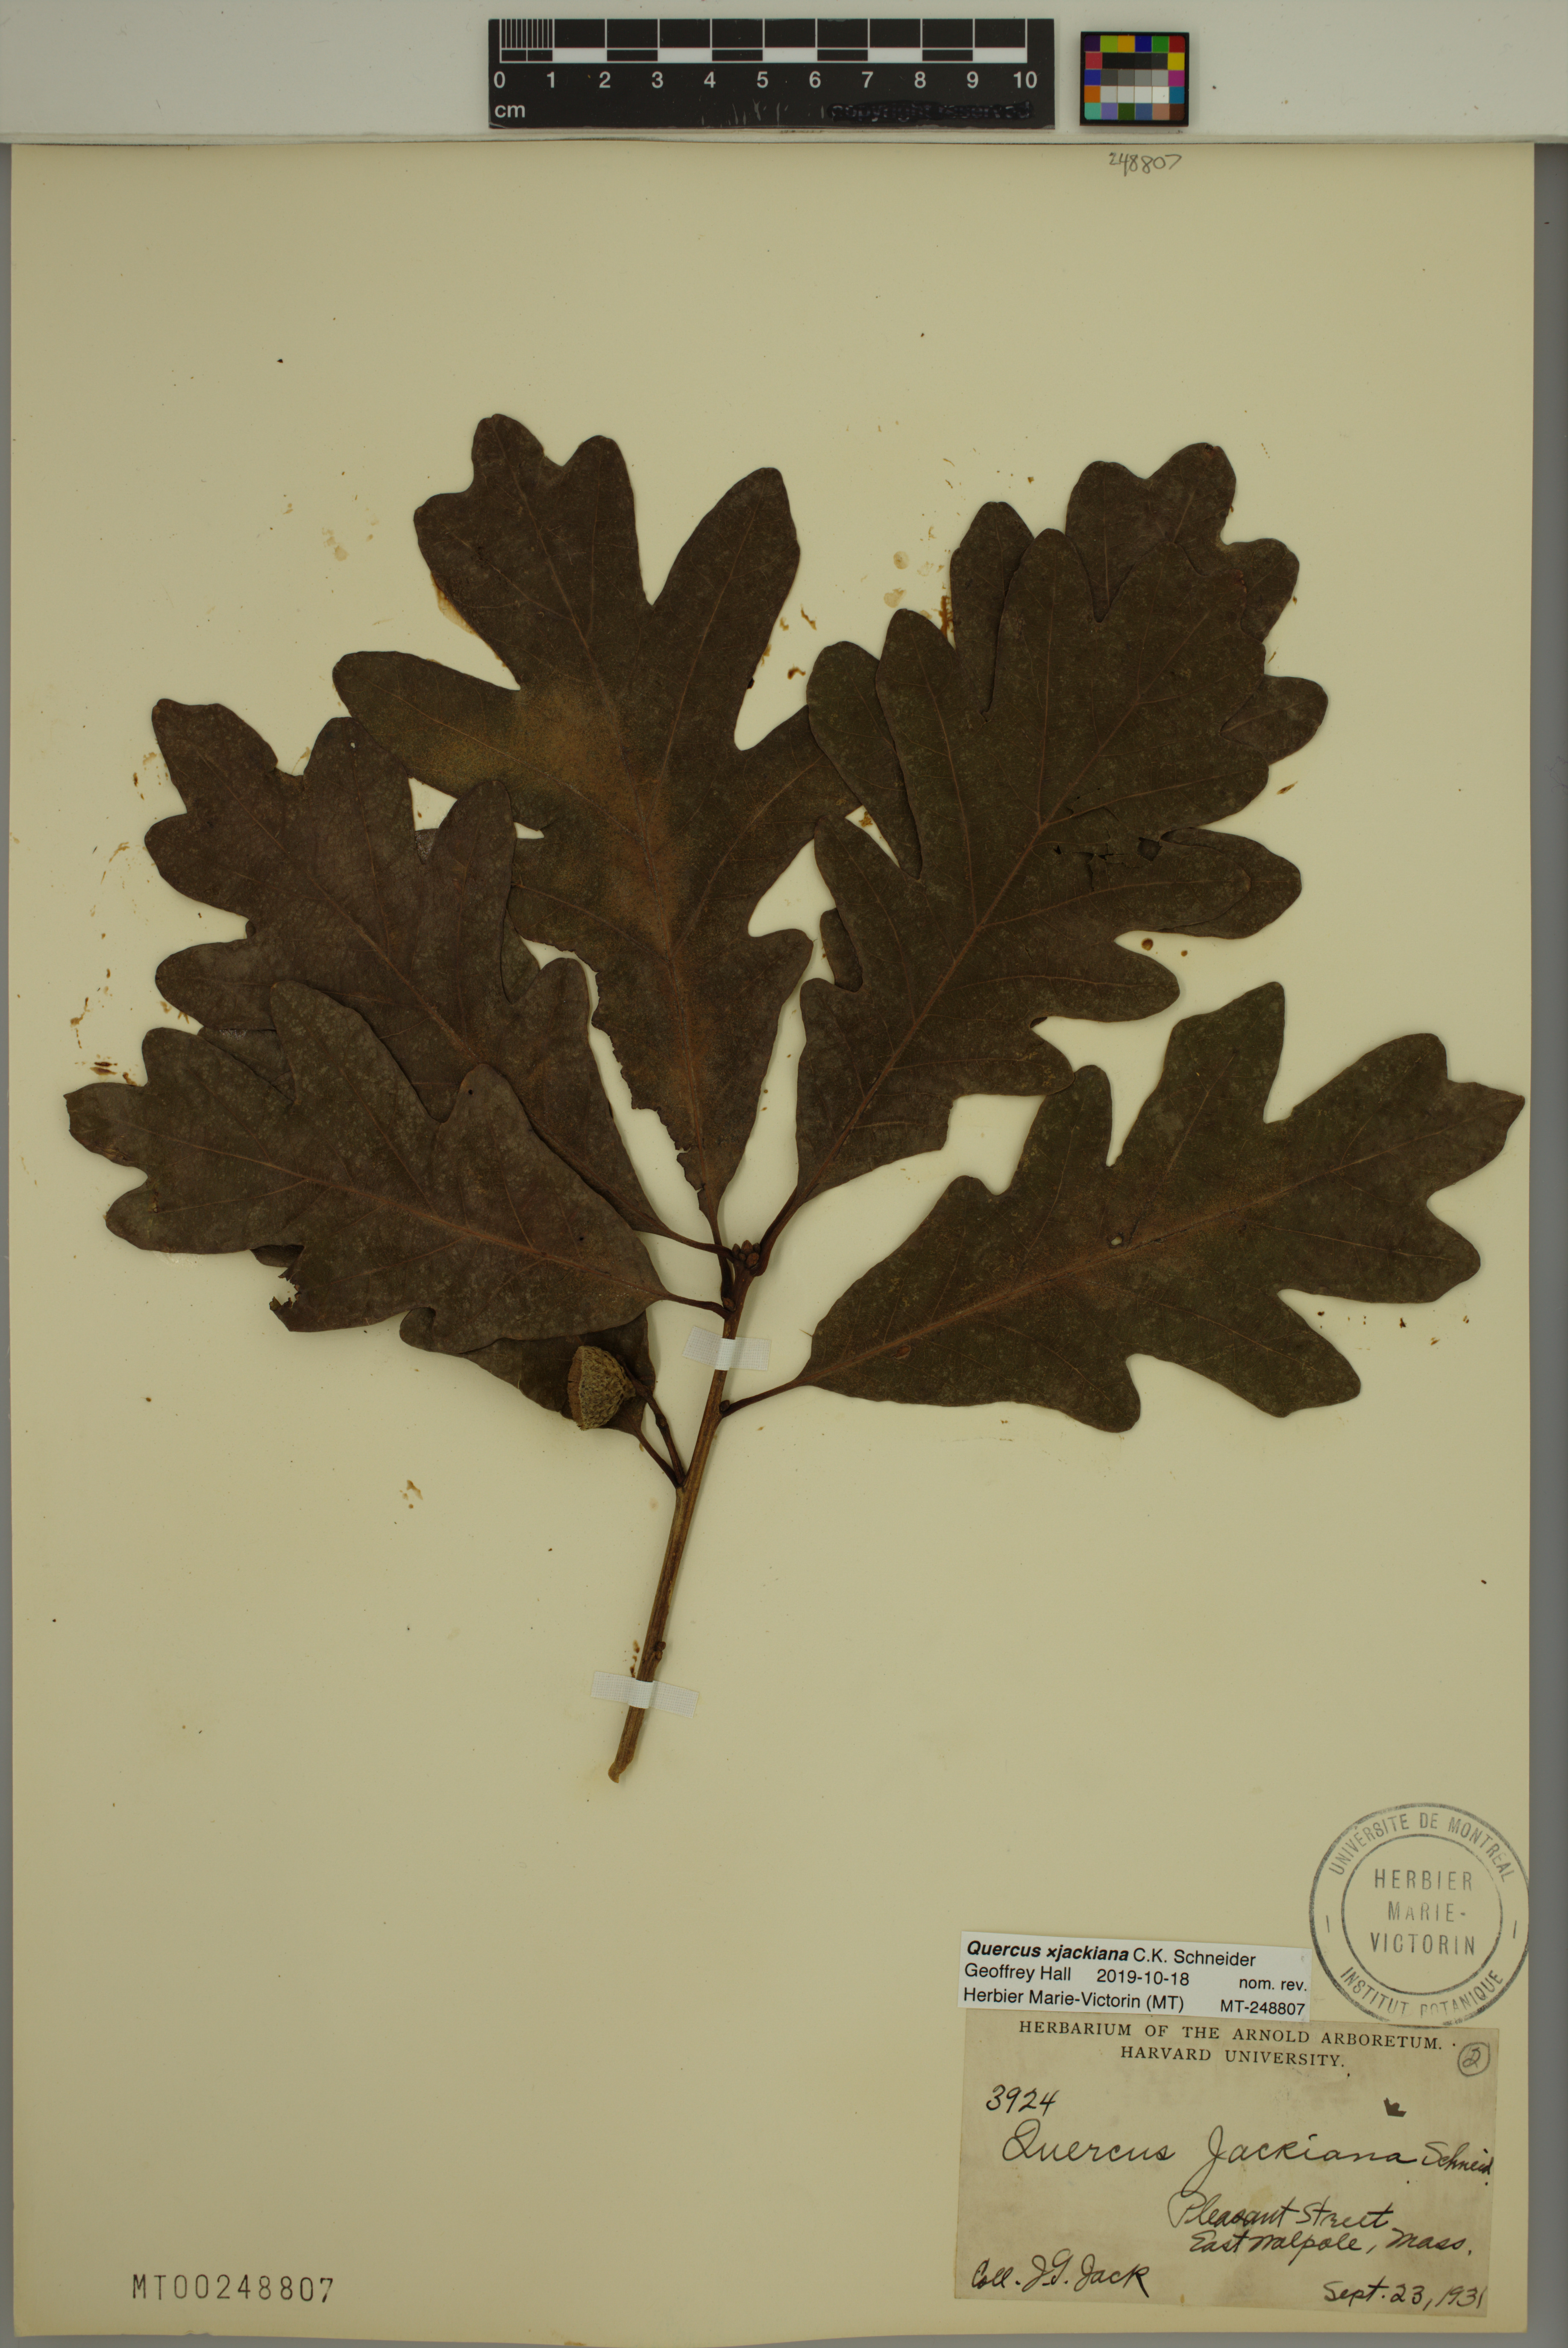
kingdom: Plantae
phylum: Tracheophyta
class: Magnoliopsida
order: Fagales
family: Fagaceae
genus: Quercus
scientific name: Quercus jackiana
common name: Jack's oak
